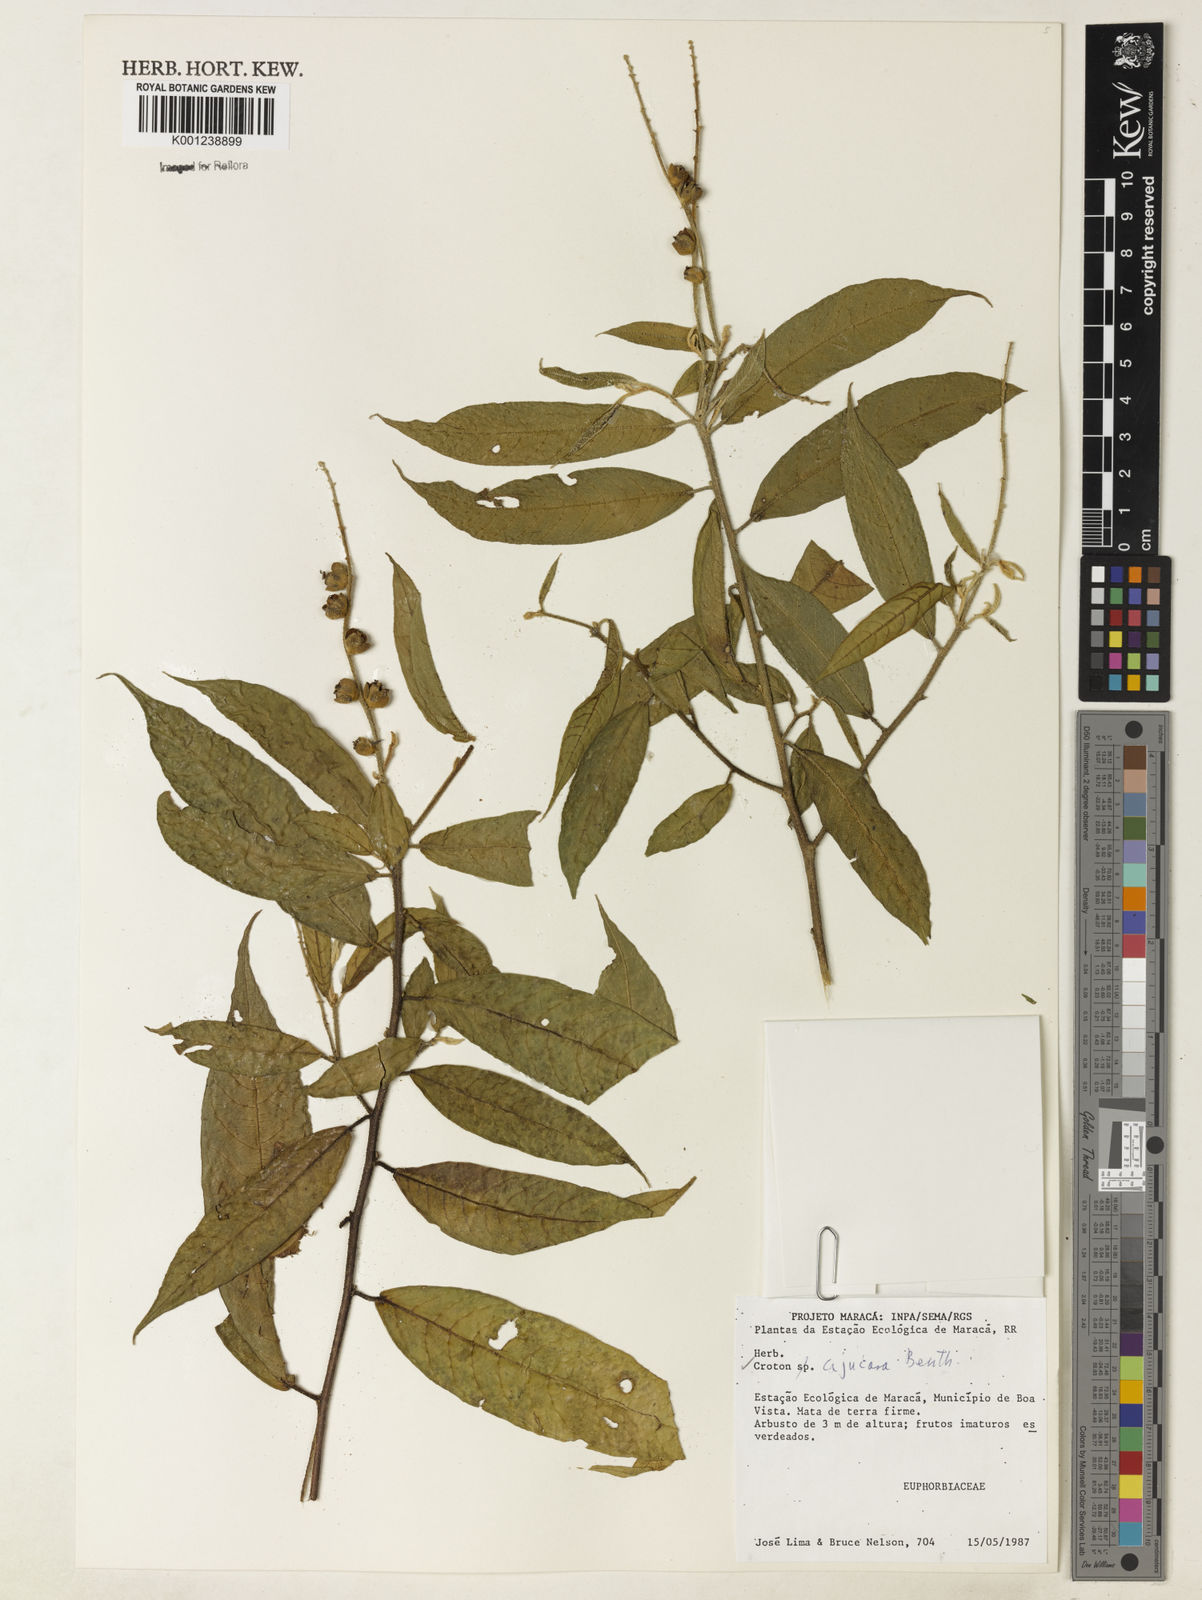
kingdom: Plantae
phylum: Tracheophyta
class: Magnoliopsida
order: Malpighiales
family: Euphorbiaceae
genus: Croton
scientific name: Croton cajucara
